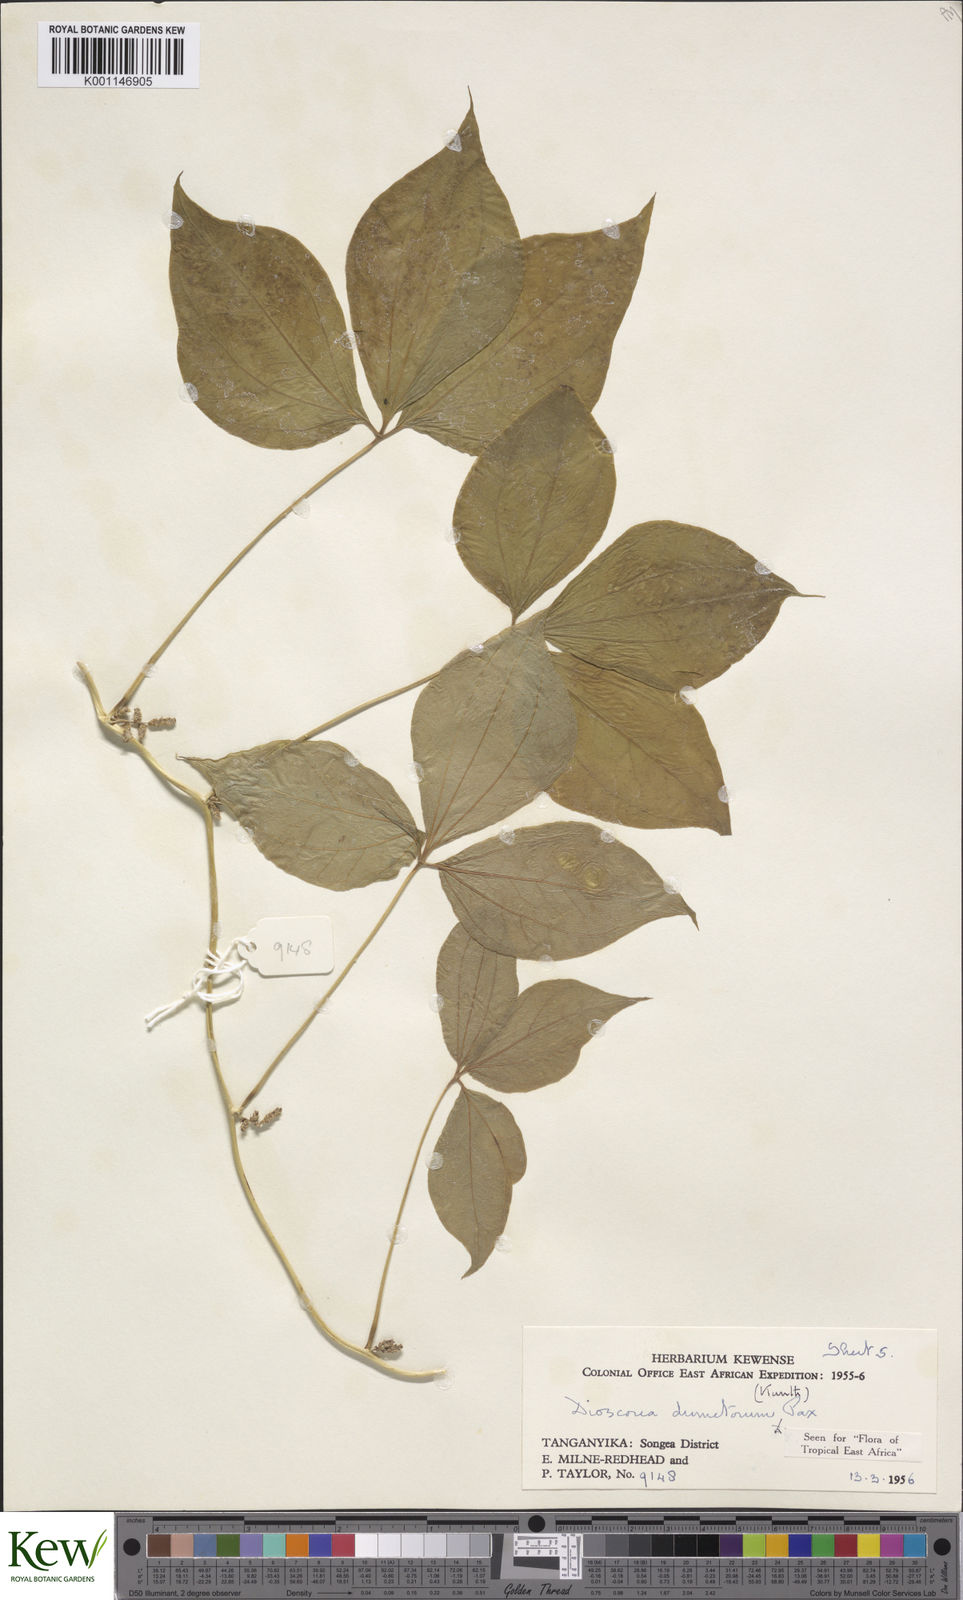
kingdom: Plantae
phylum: Tracheophyta
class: Liliopsida
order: Dioscoreales
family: Dioscoreaceae
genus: Dioscorea
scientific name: Dioscorea dumetorum
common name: African bitter yam
